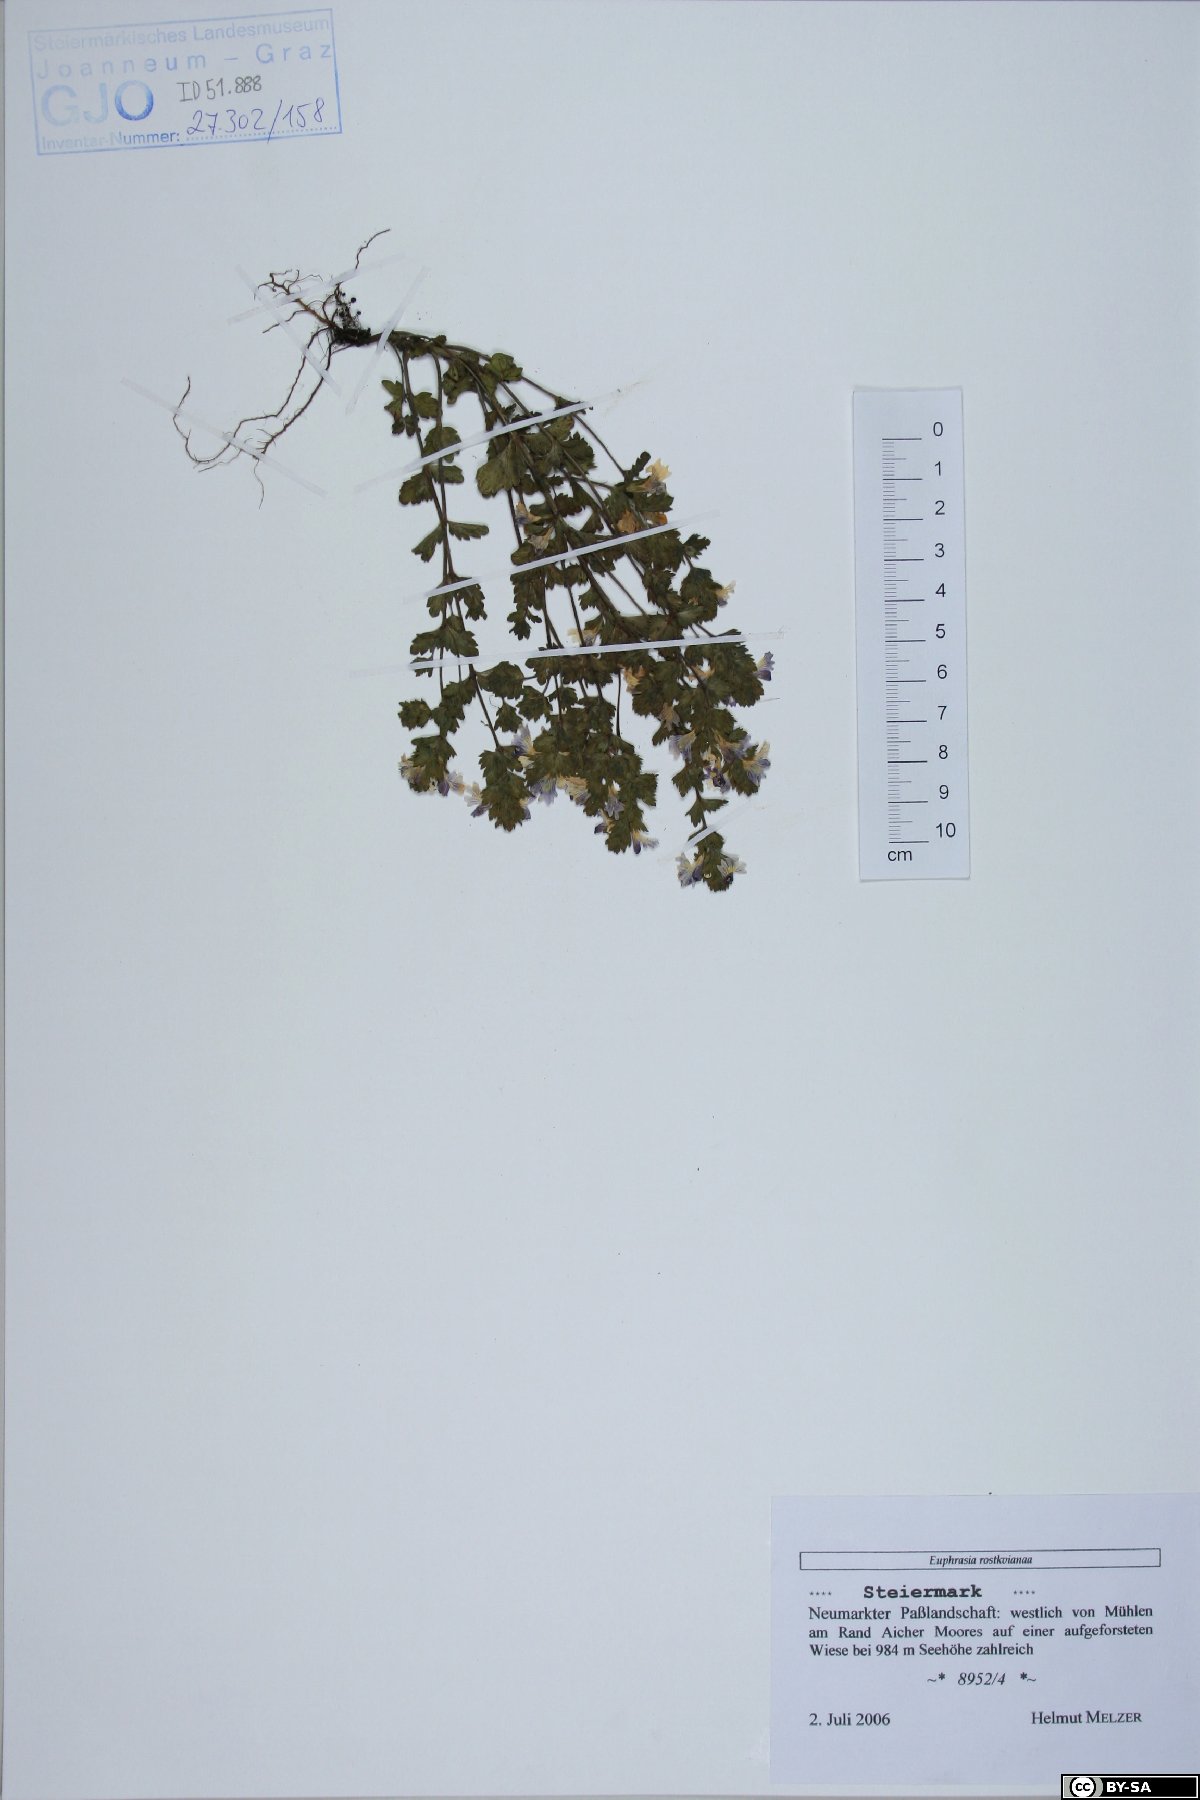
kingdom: Plantae
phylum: Tracheophyta
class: Magnoliopsida
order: Lamiales
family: Orobanchaceae
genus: Euphrasia
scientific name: Euphrasia officinalis
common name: Eyebright
